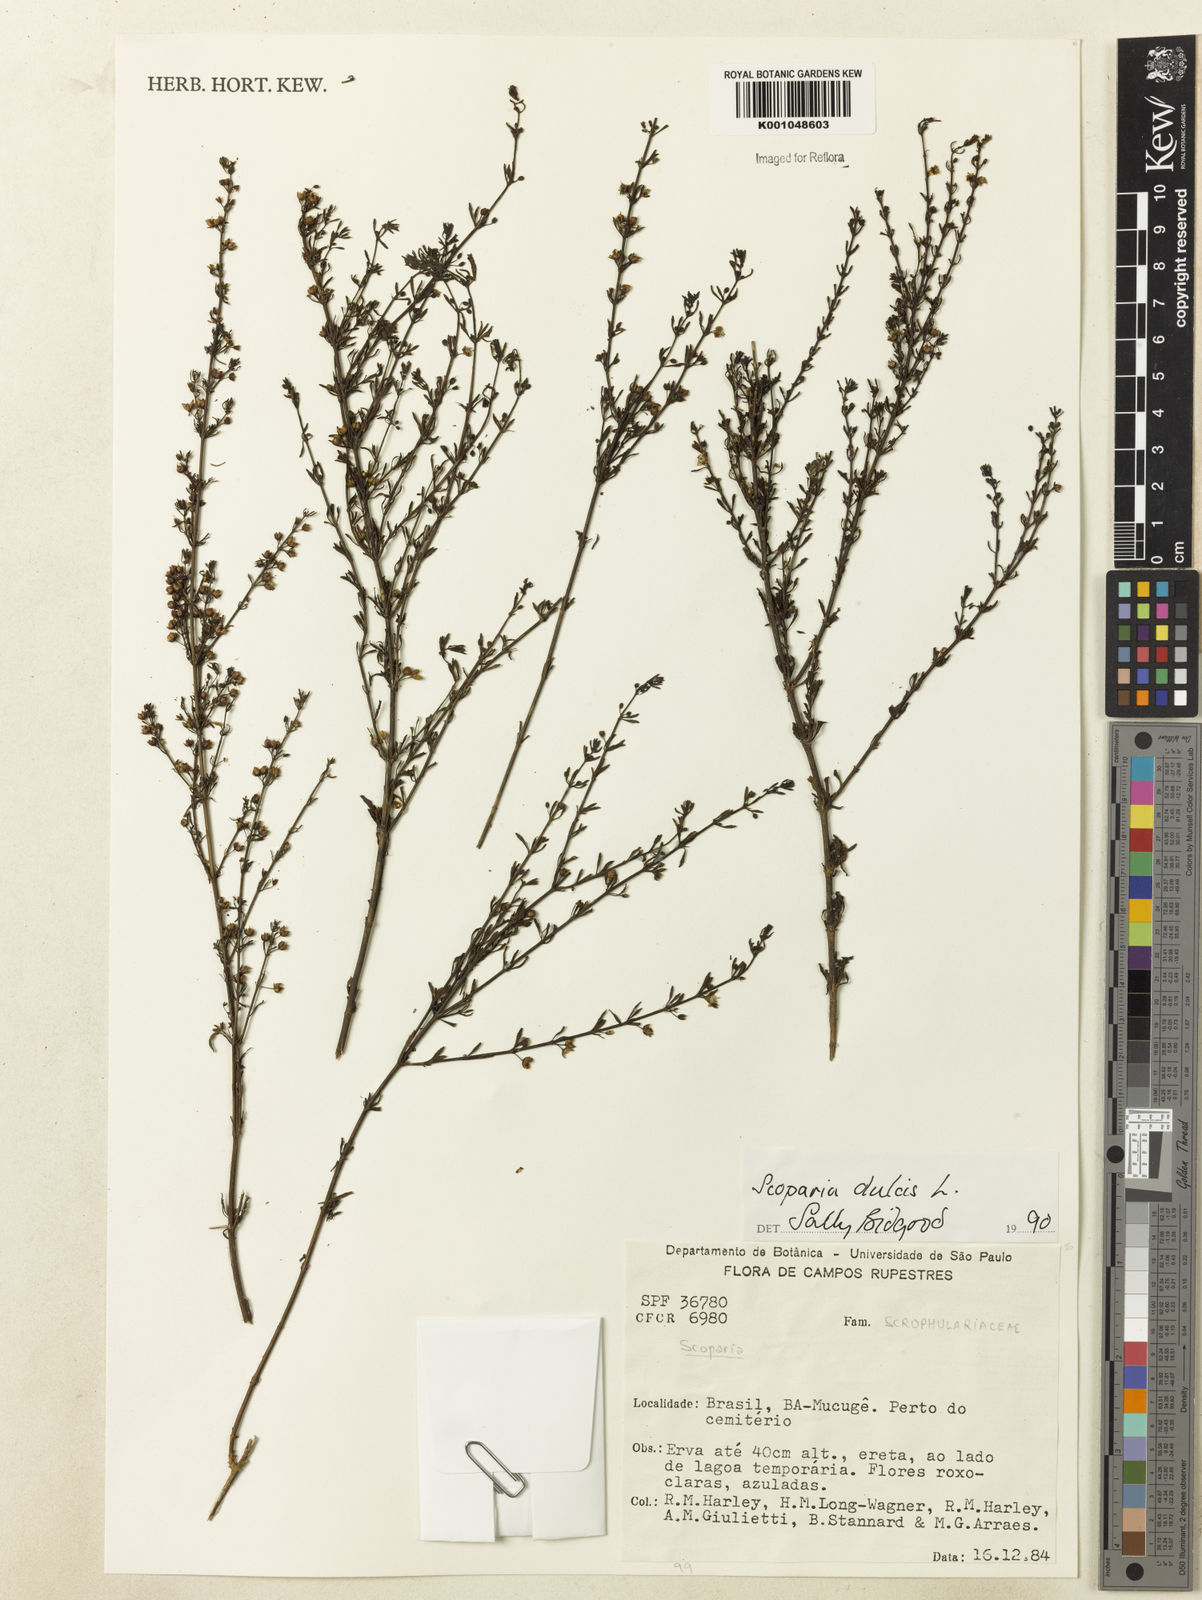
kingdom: Plantae
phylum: Tracheophyta
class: Magnoliopsida
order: Lamiales
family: Plantaginaceae
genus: Scoparia
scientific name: Scoparia dulcis
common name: Scoparia-weed
